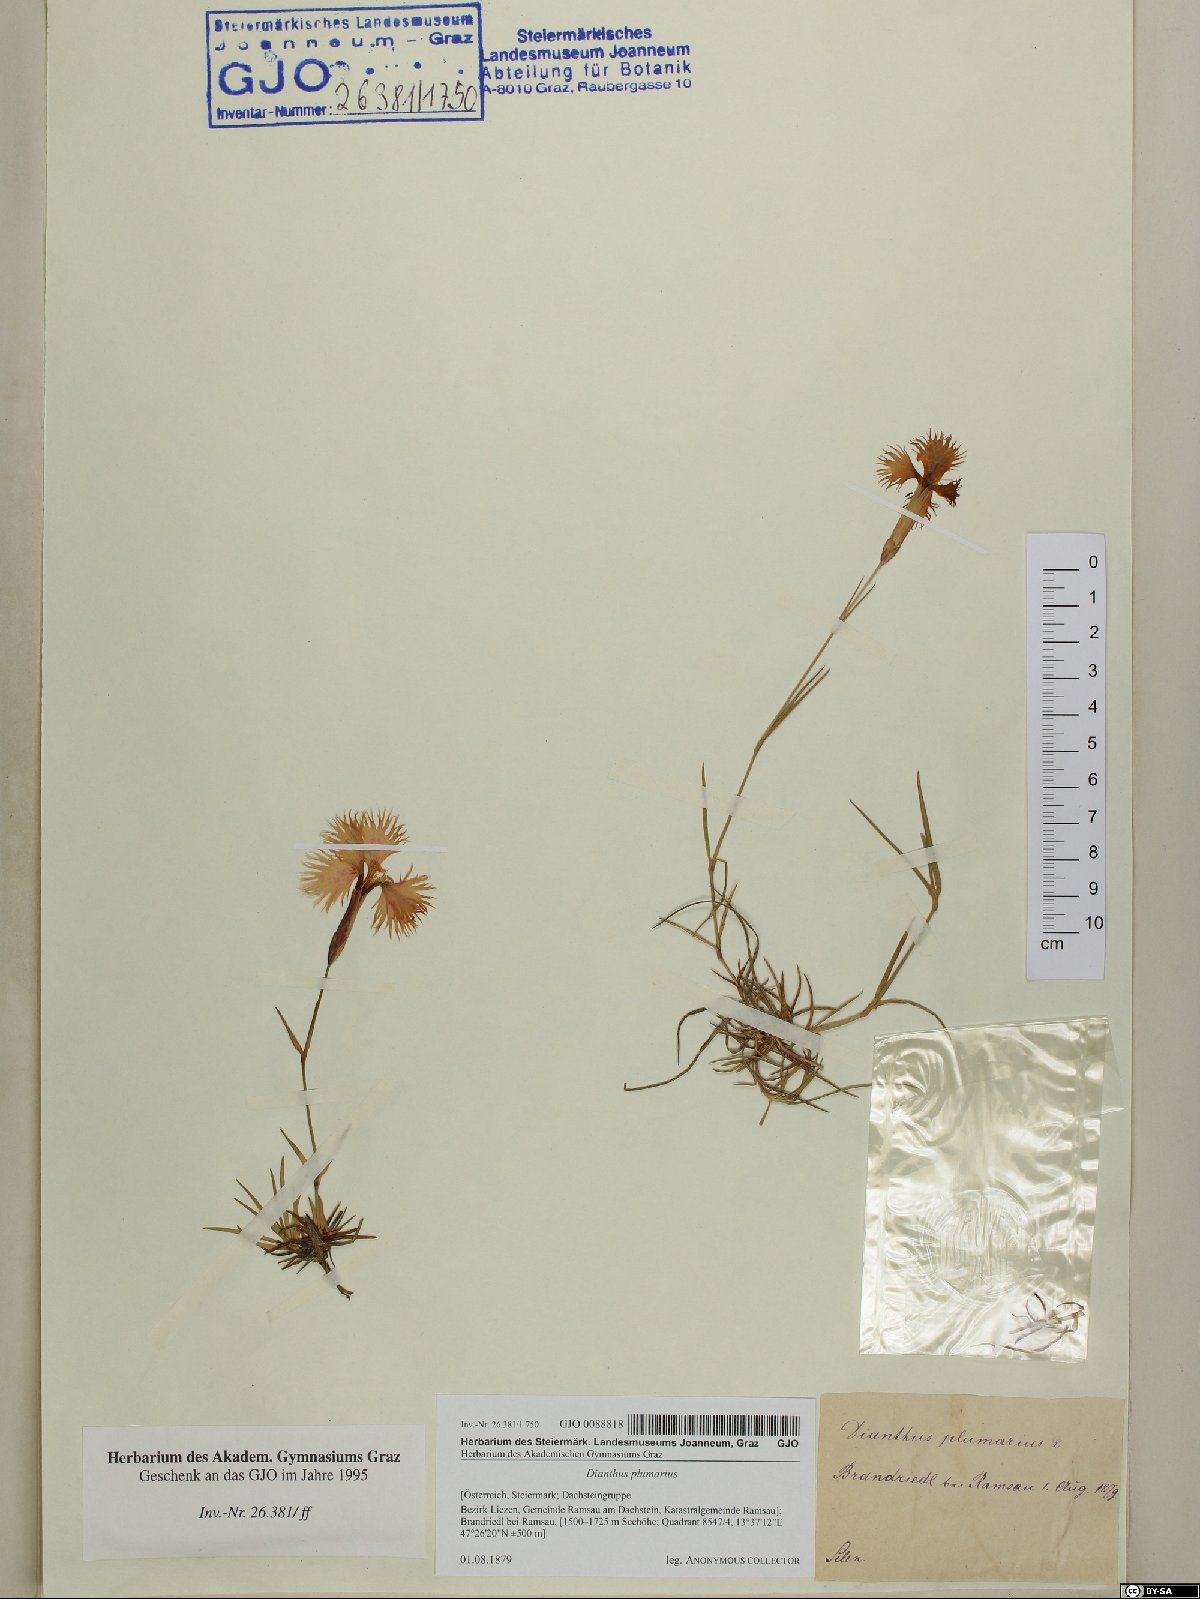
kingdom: Plantae
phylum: Tracheophyta
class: Magnoliopsida
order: Caryophyllales
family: Caryophyllaceae
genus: Dianthus
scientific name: Dianthus plumarius
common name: Pink
